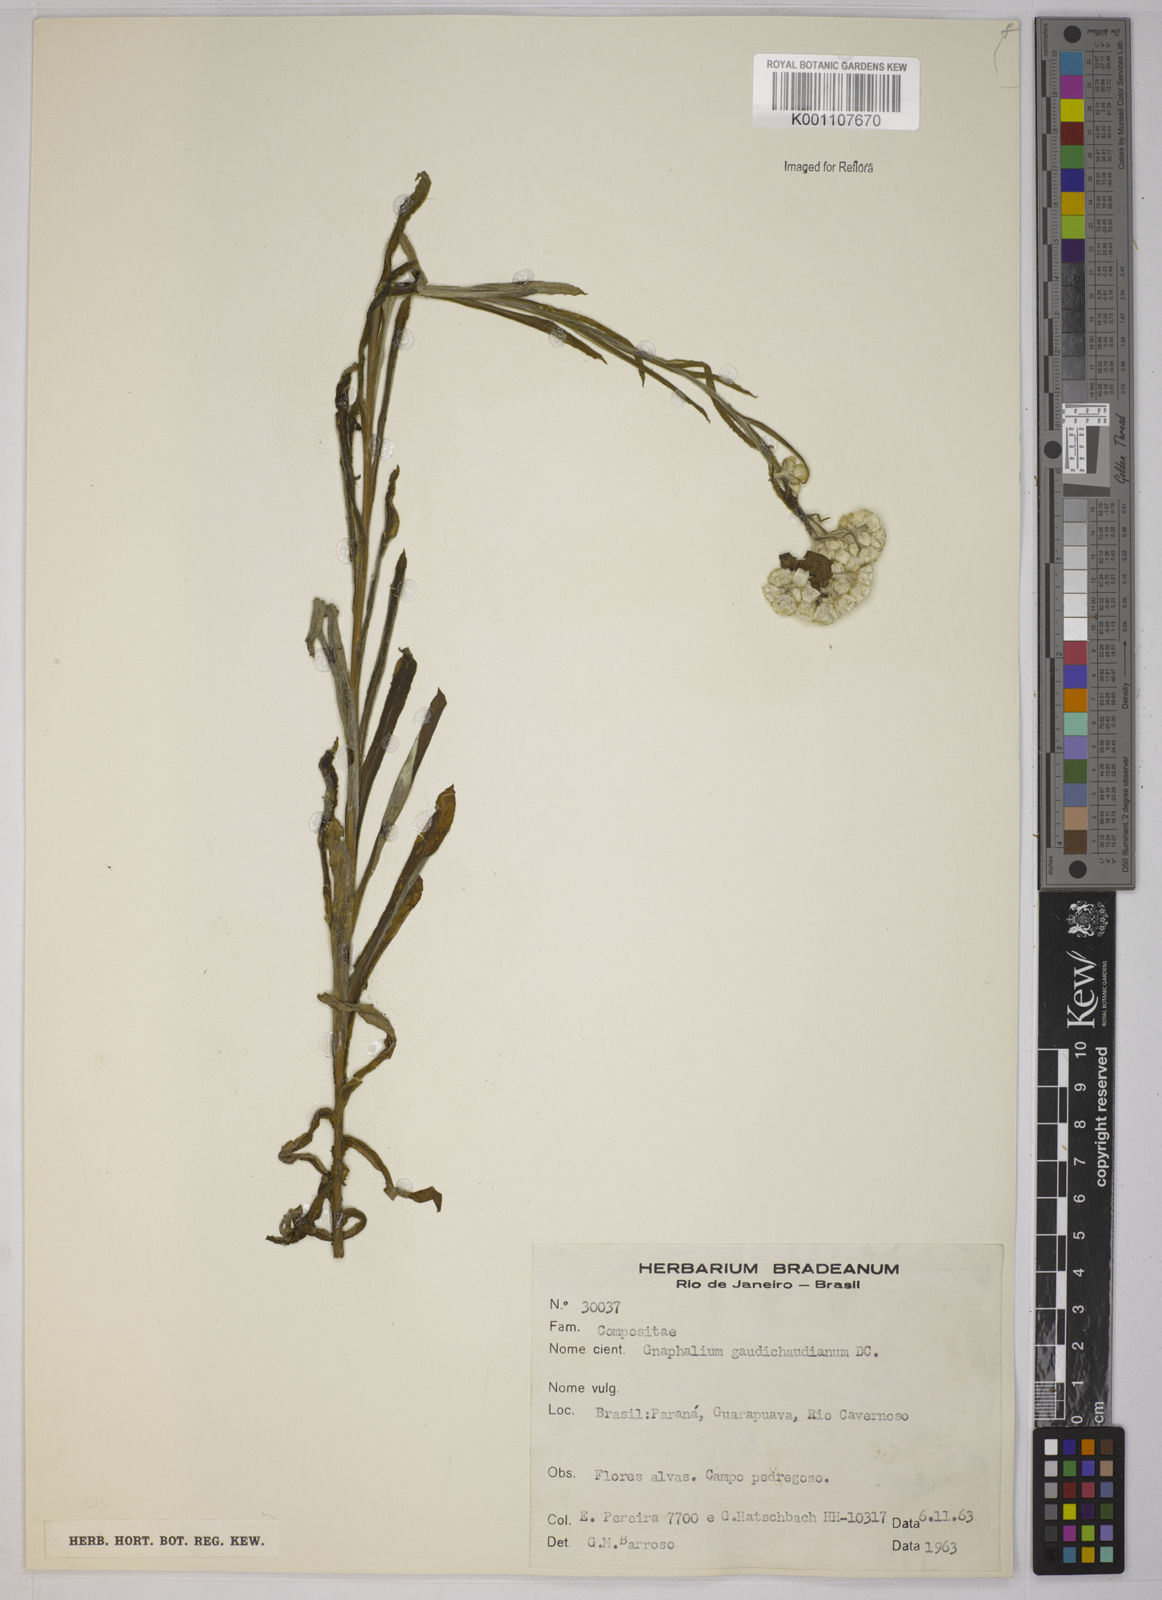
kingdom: Plantae
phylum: Tracheophyta
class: Magnoliopsida
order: Asterales
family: Asteraceae
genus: Pseudognaphalium
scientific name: Pseudognaphalium gaudichaudianum
